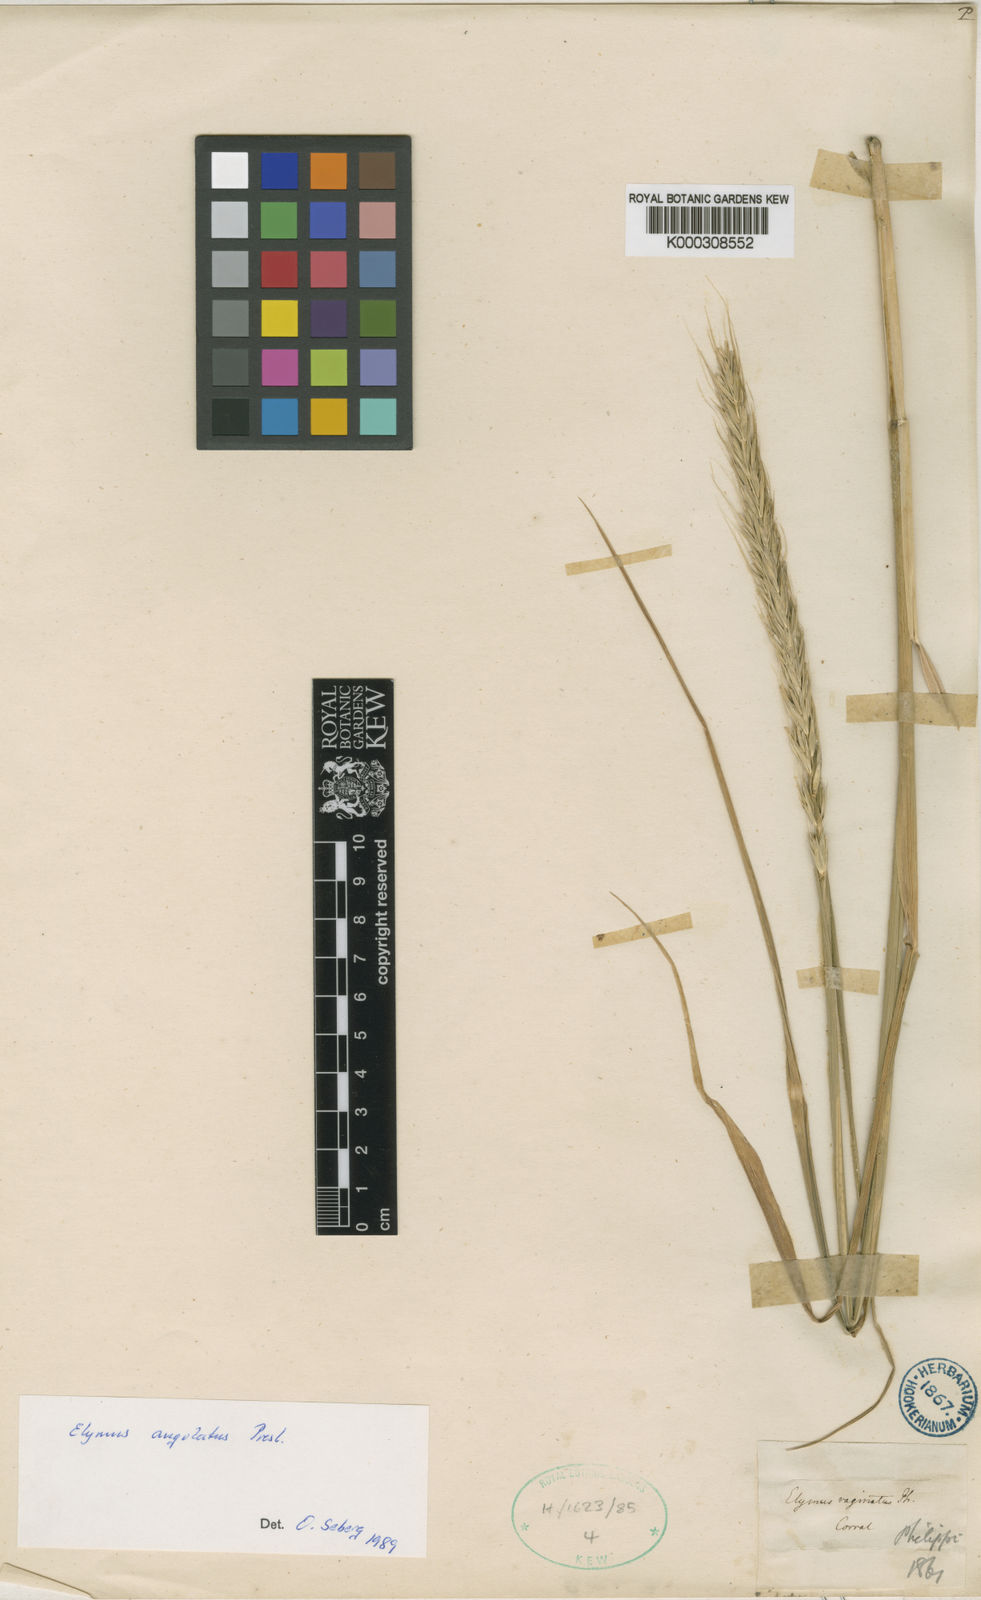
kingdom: Plantae
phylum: Tracheophyta
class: Liliopsida
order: Poales
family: Poaceae
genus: Elymus
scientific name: Elymus angulatus
